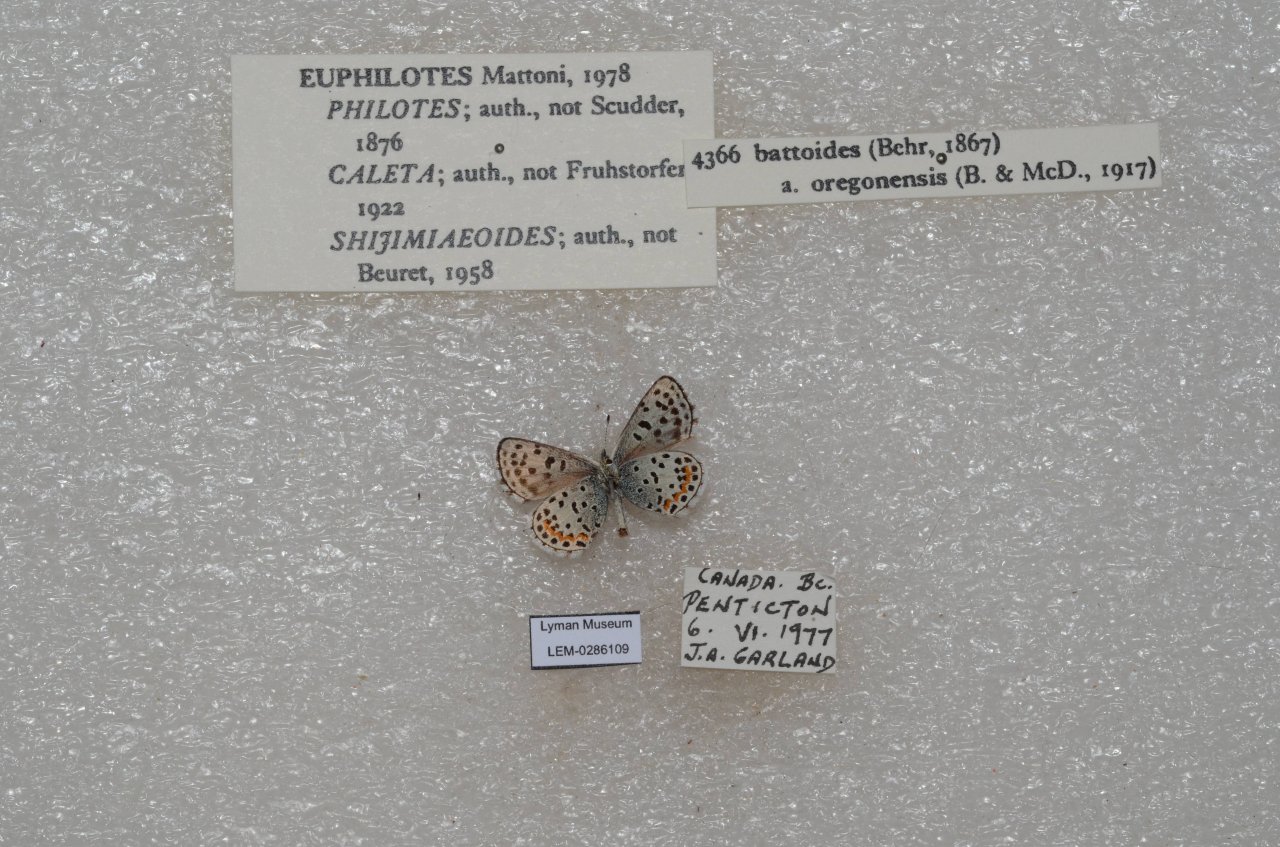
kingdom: Animalia
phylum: Arthropoda
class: Insecta
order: Lepidoptera
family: Lycaenidae
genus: Euphilotes
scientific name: Euphilotes battoides
